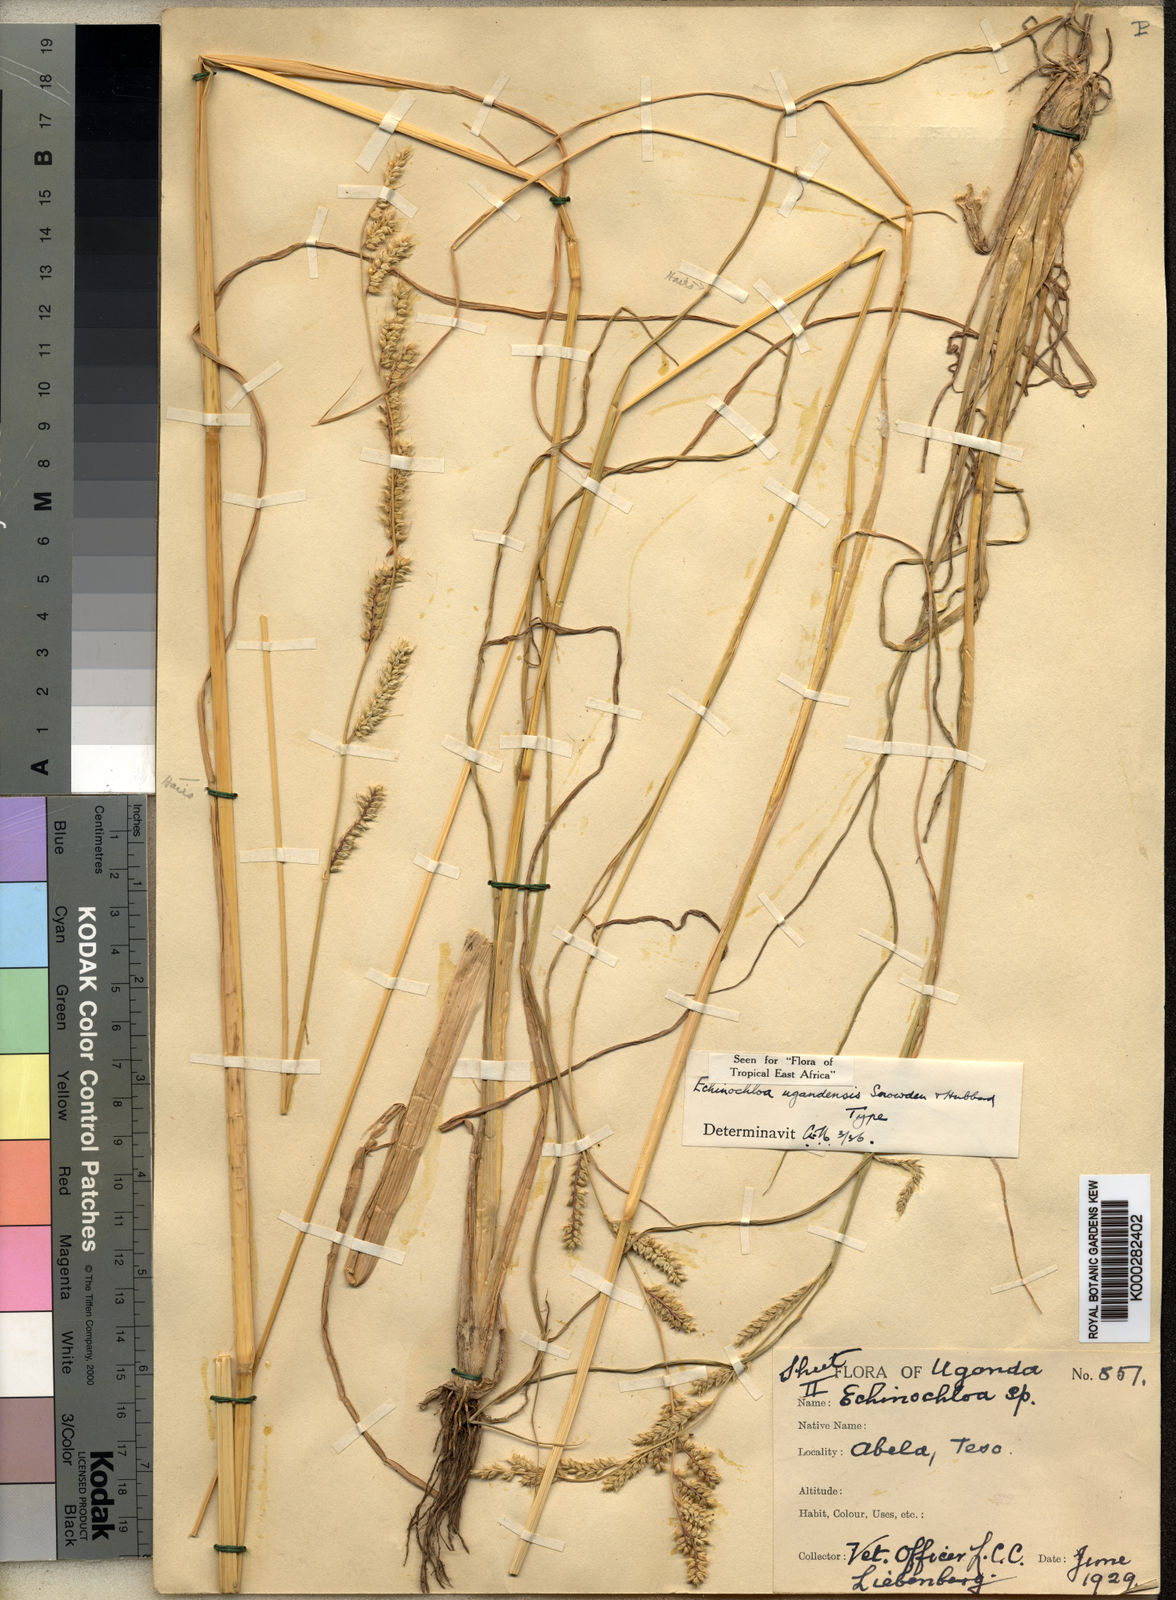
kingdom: Plantae
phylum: Tracheophyta
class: Liliopsida
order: Poales
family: Poaceae
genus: Echinochloa
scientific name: Echinochloa ugandensis
